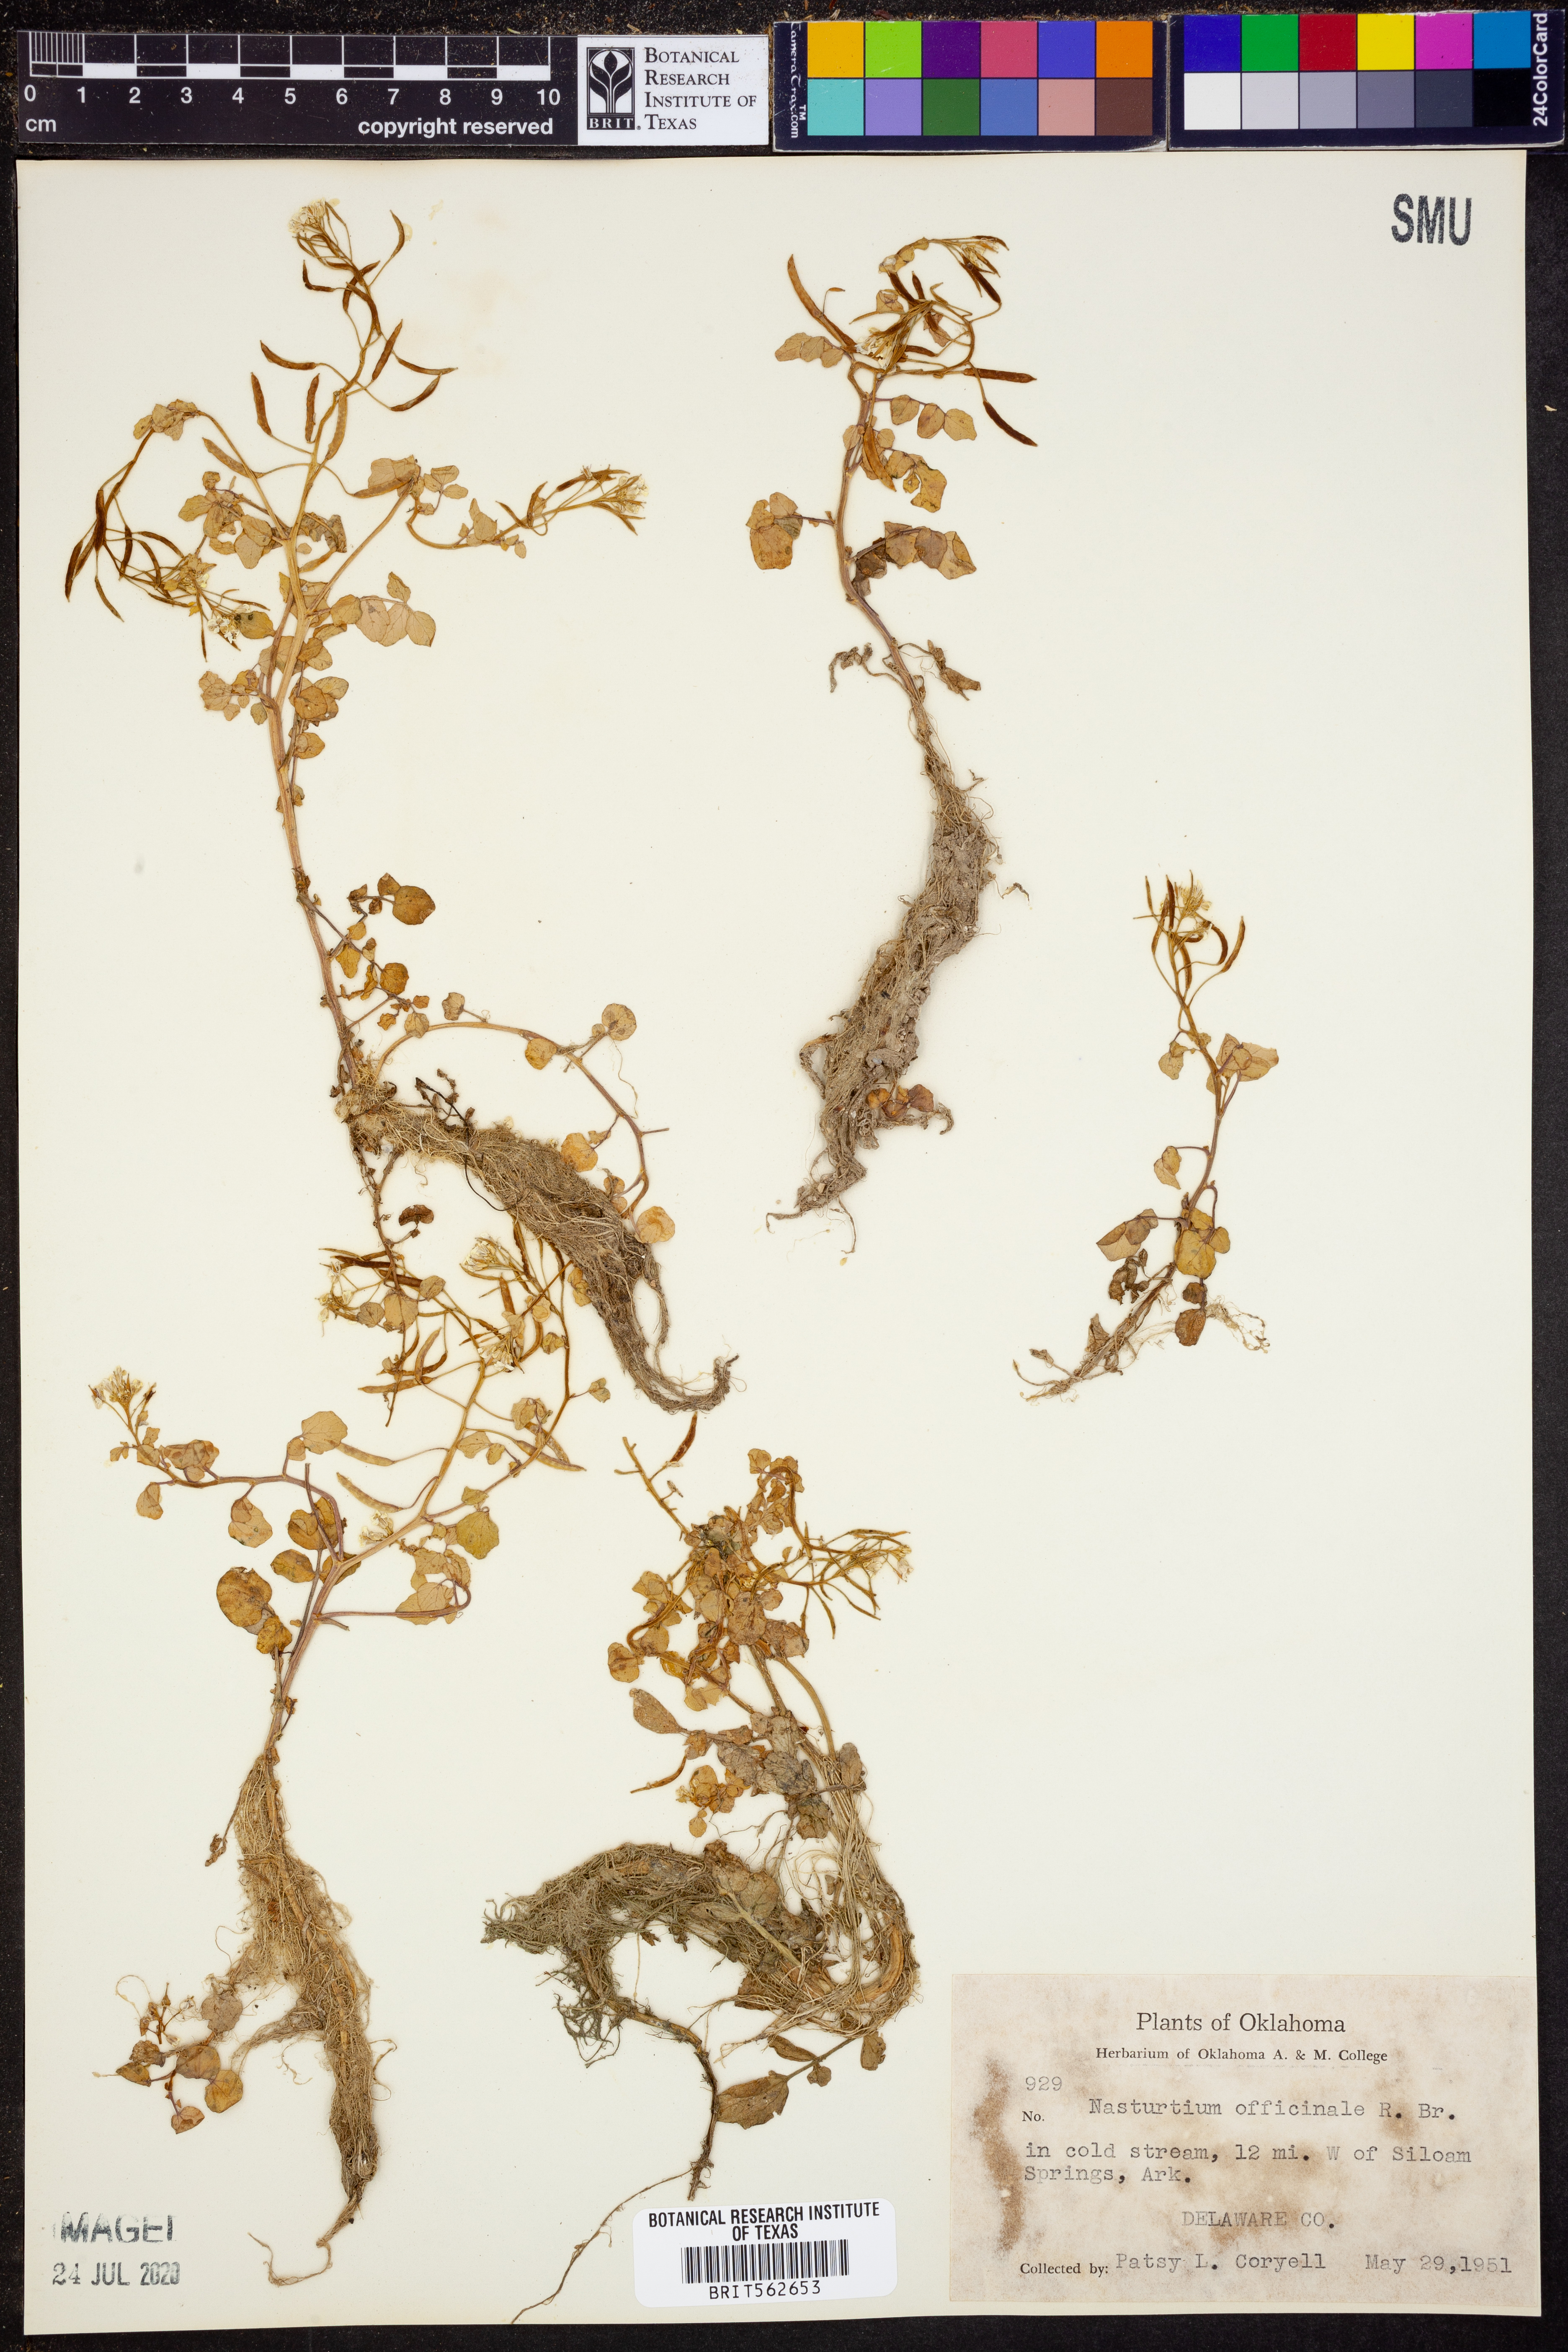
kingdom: Plantae
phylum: Tracheophyta
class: Magnoliopsida
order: Brassicales
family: Brassicaceae
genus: Nasturtium
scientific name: Nasturtium officinale
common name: Watercress
